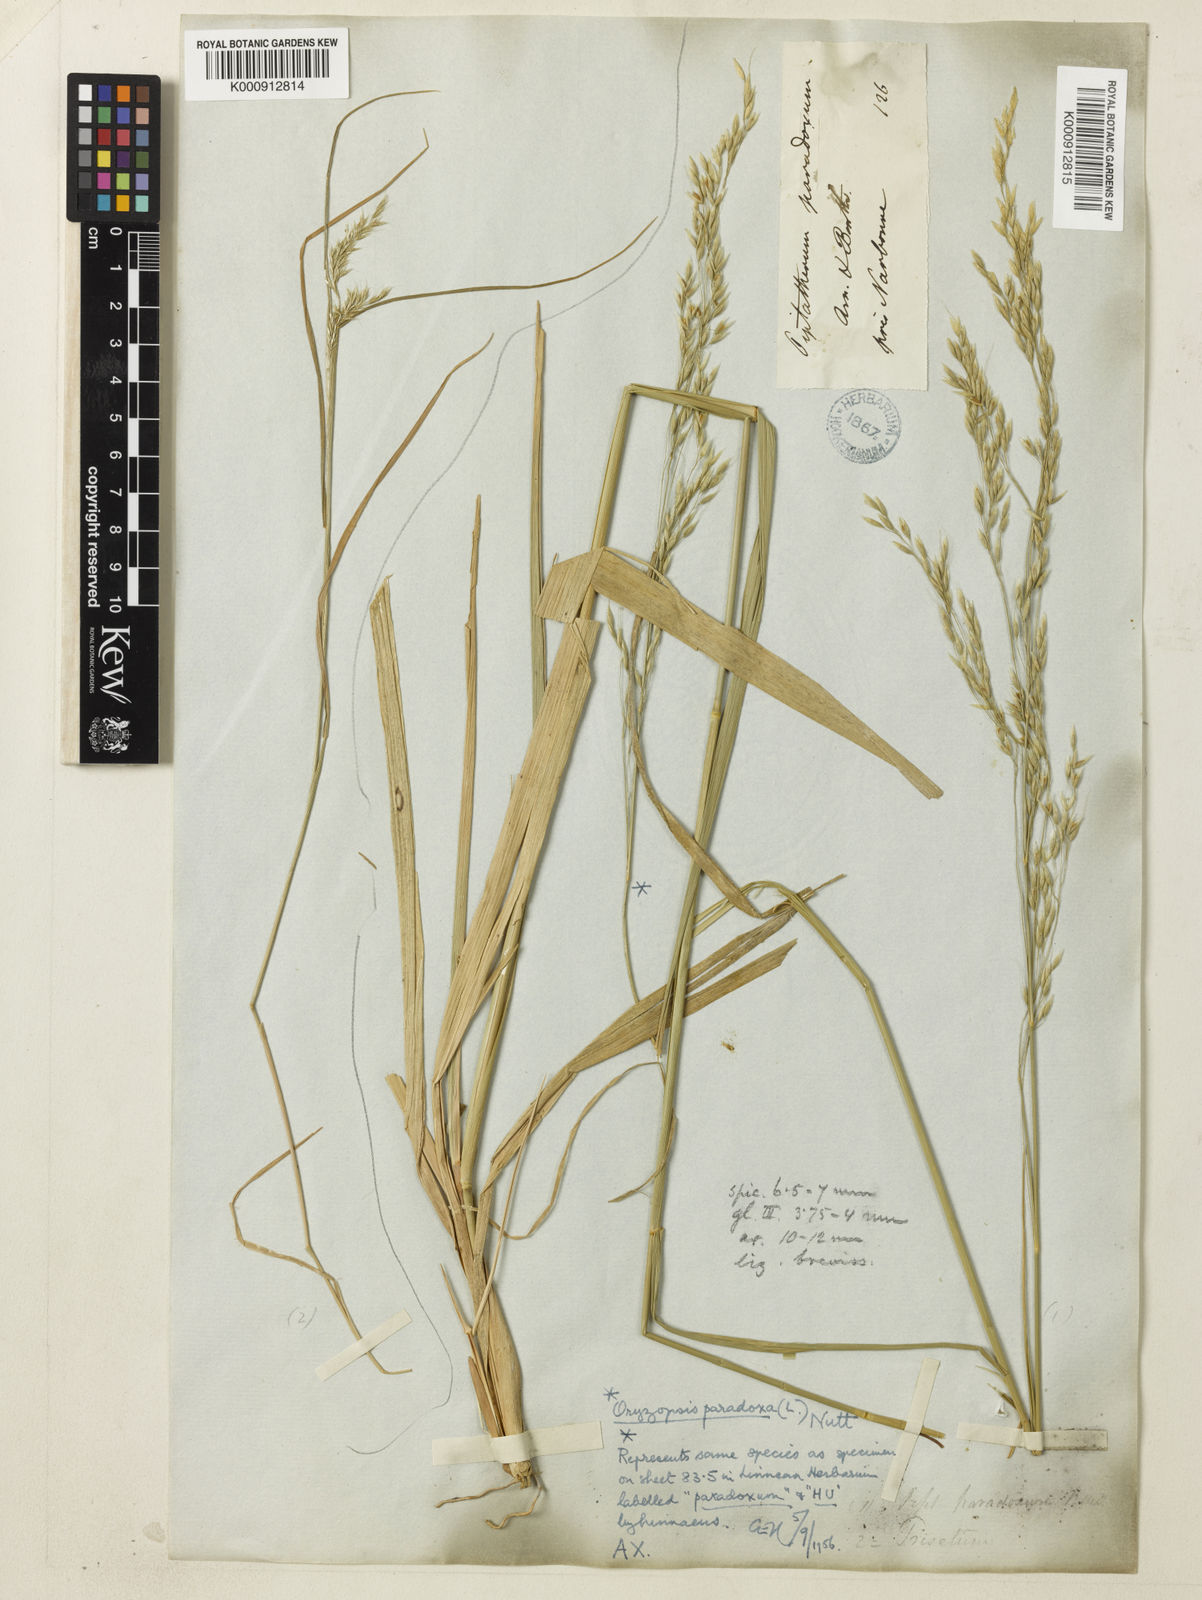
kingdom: Plantae
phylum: Tracheophyta
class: Liliopsida
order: Poales
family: Poaceae
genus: Piptatherum
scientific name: Piptatherum
